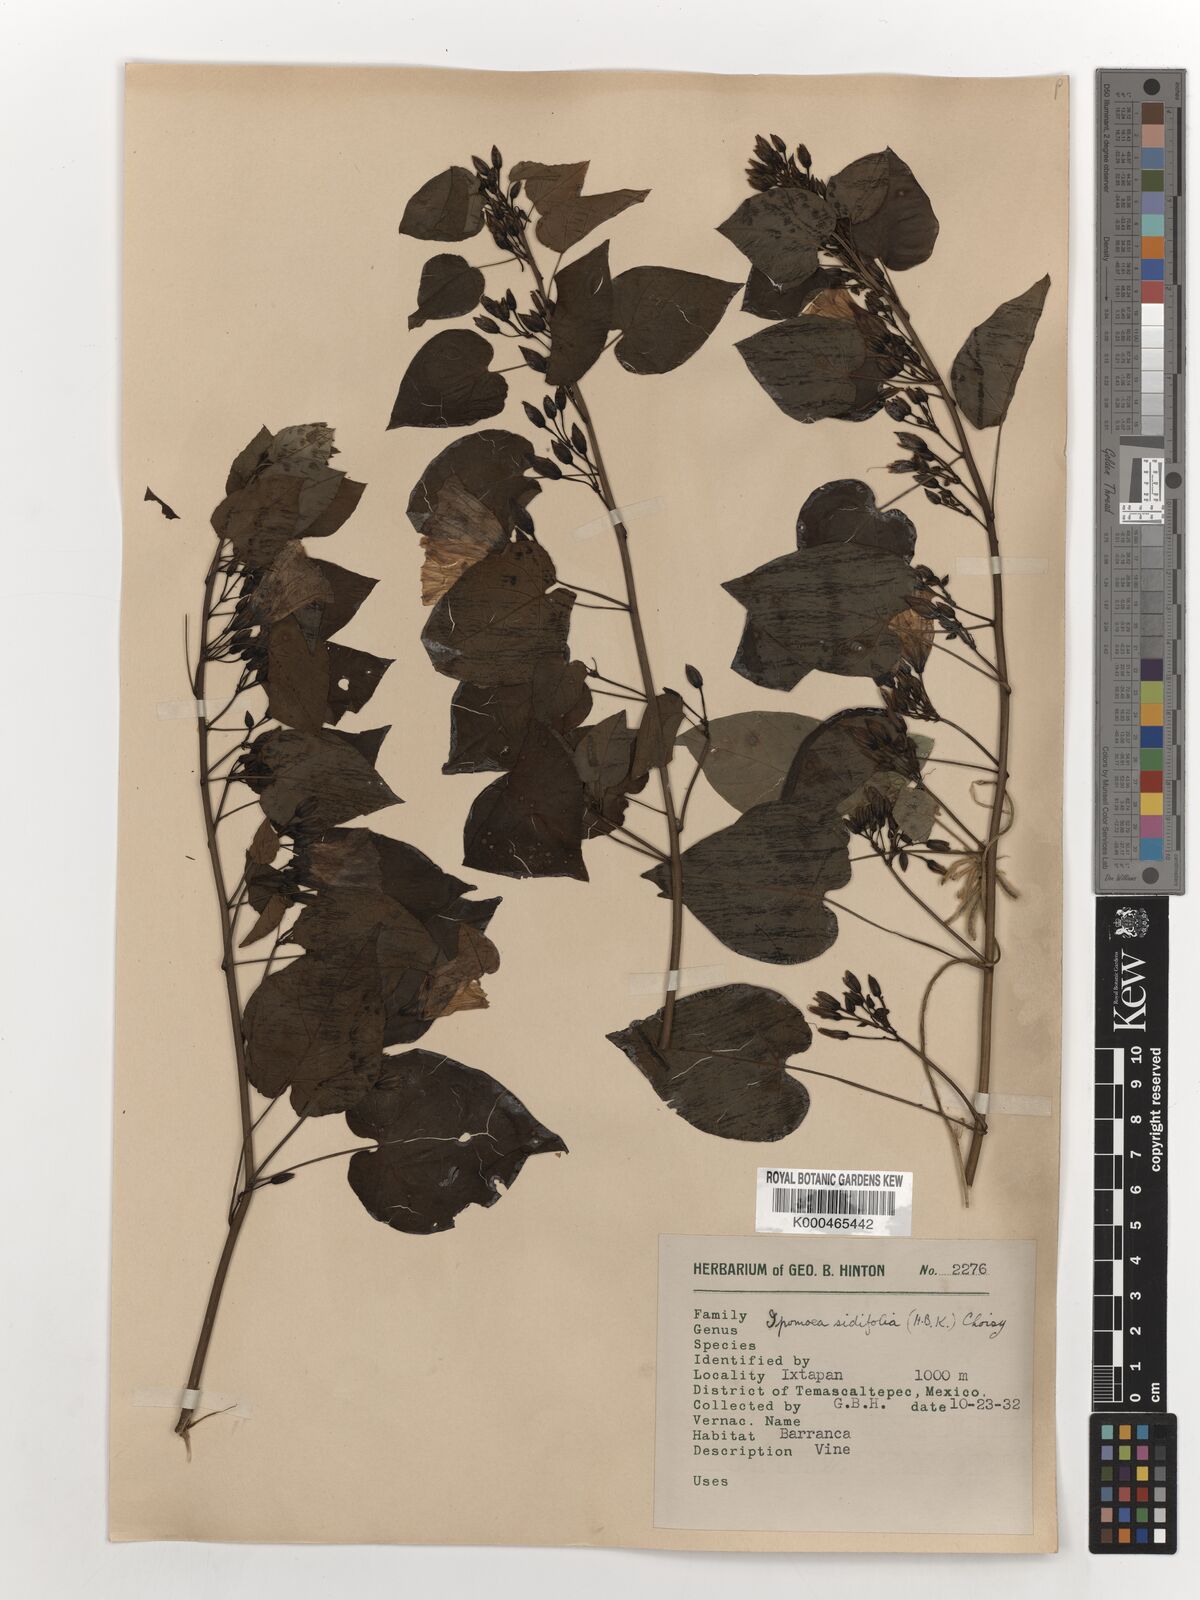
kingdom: Plantae
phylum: Tracheophyta
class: Magnoliopsida
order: Solanales
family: Convolvulaceae
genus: Ipomoea
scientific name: Ipomoea corymbosa
